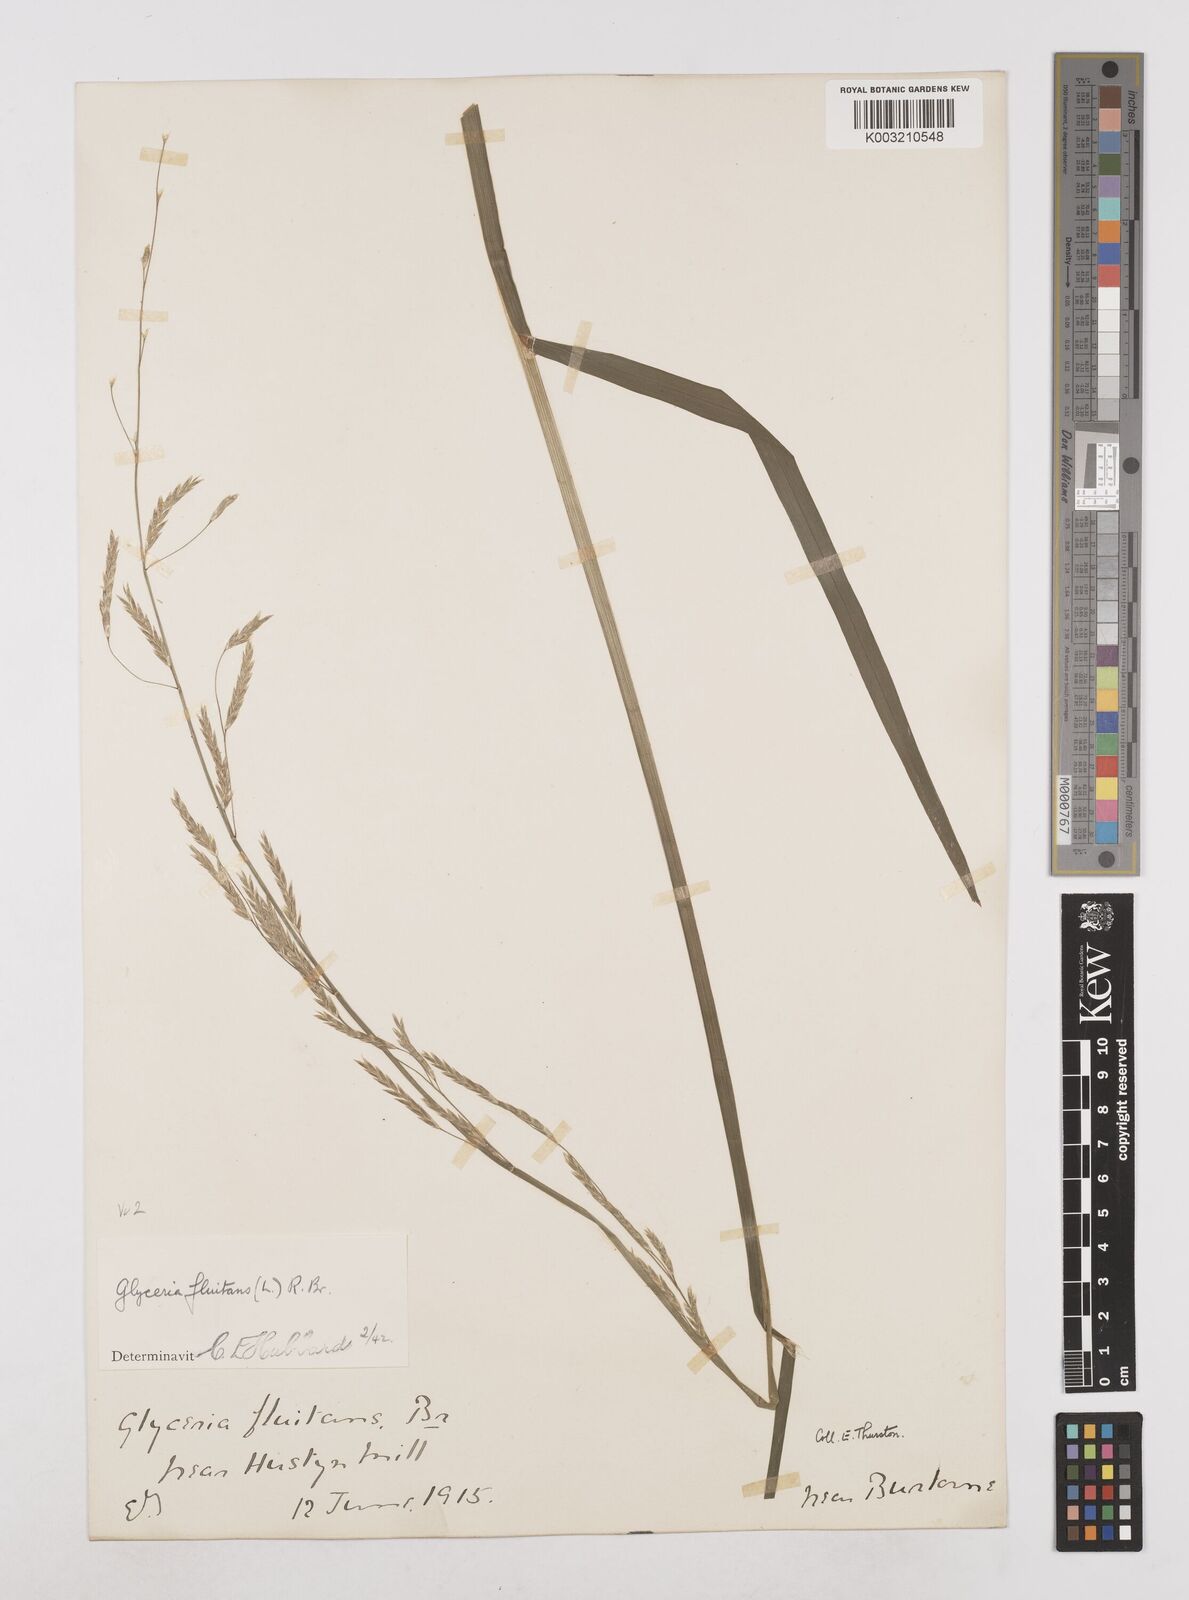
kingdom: Plantae
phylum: Tracheophyta
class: Liliopsida
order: Poales
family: Poaceae
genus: Glyceria
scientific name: Glyceria fluitans
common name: Floating sweet-grass
